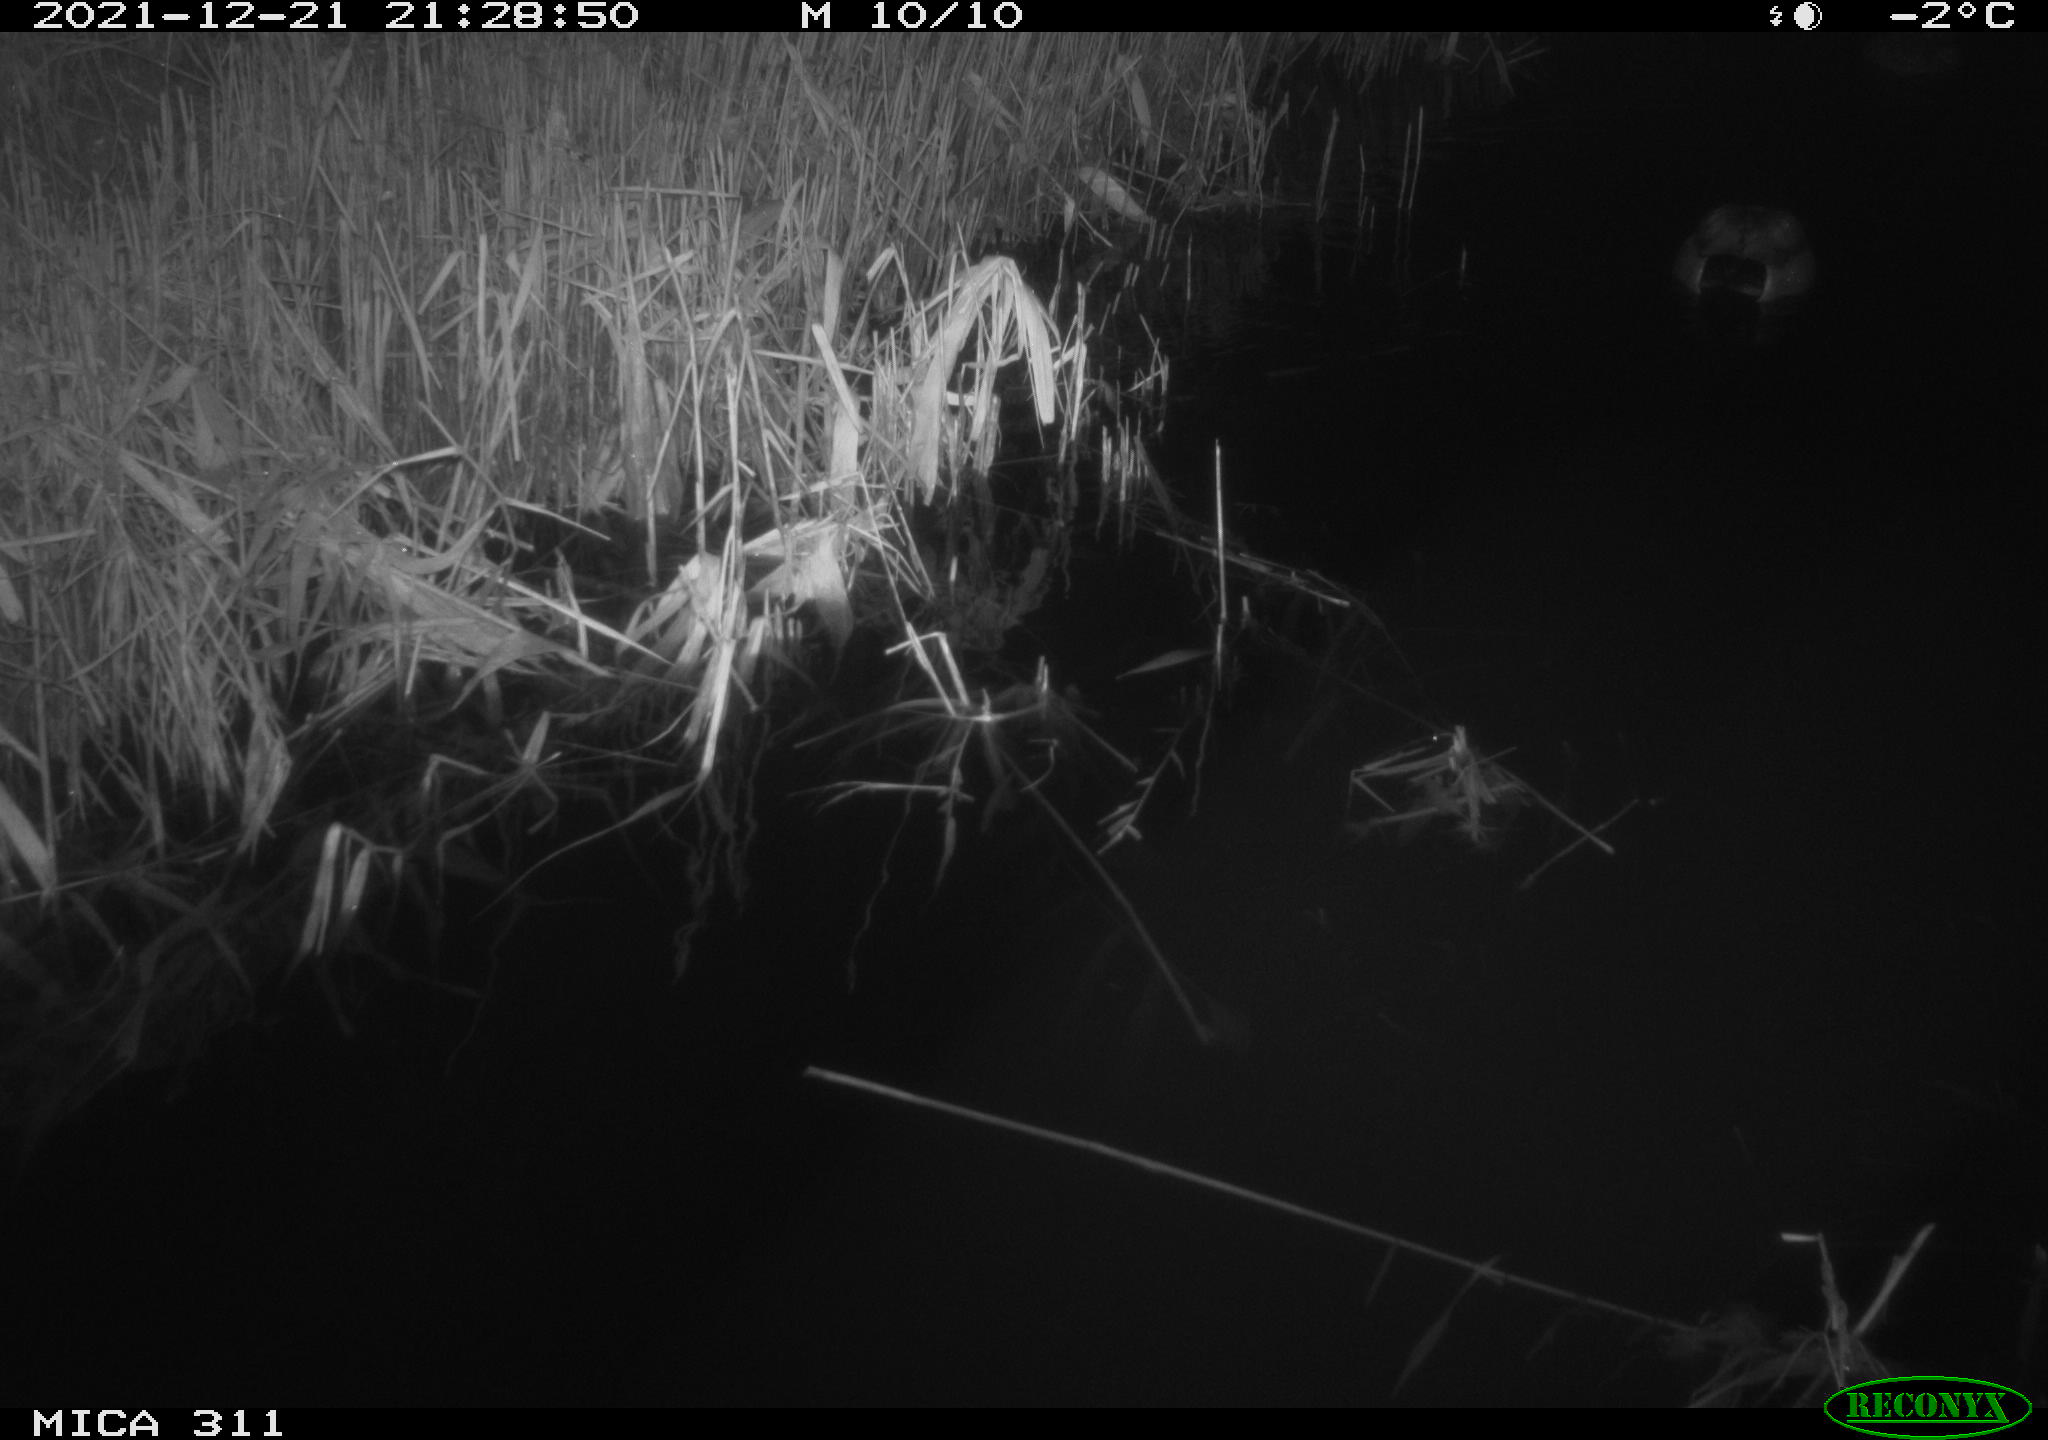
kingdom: Animalia
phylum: Chordata
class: Aves
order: Anseriformes
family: Anatidae
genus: Anas
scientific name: Anas platyrhynchos
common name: Mallard
